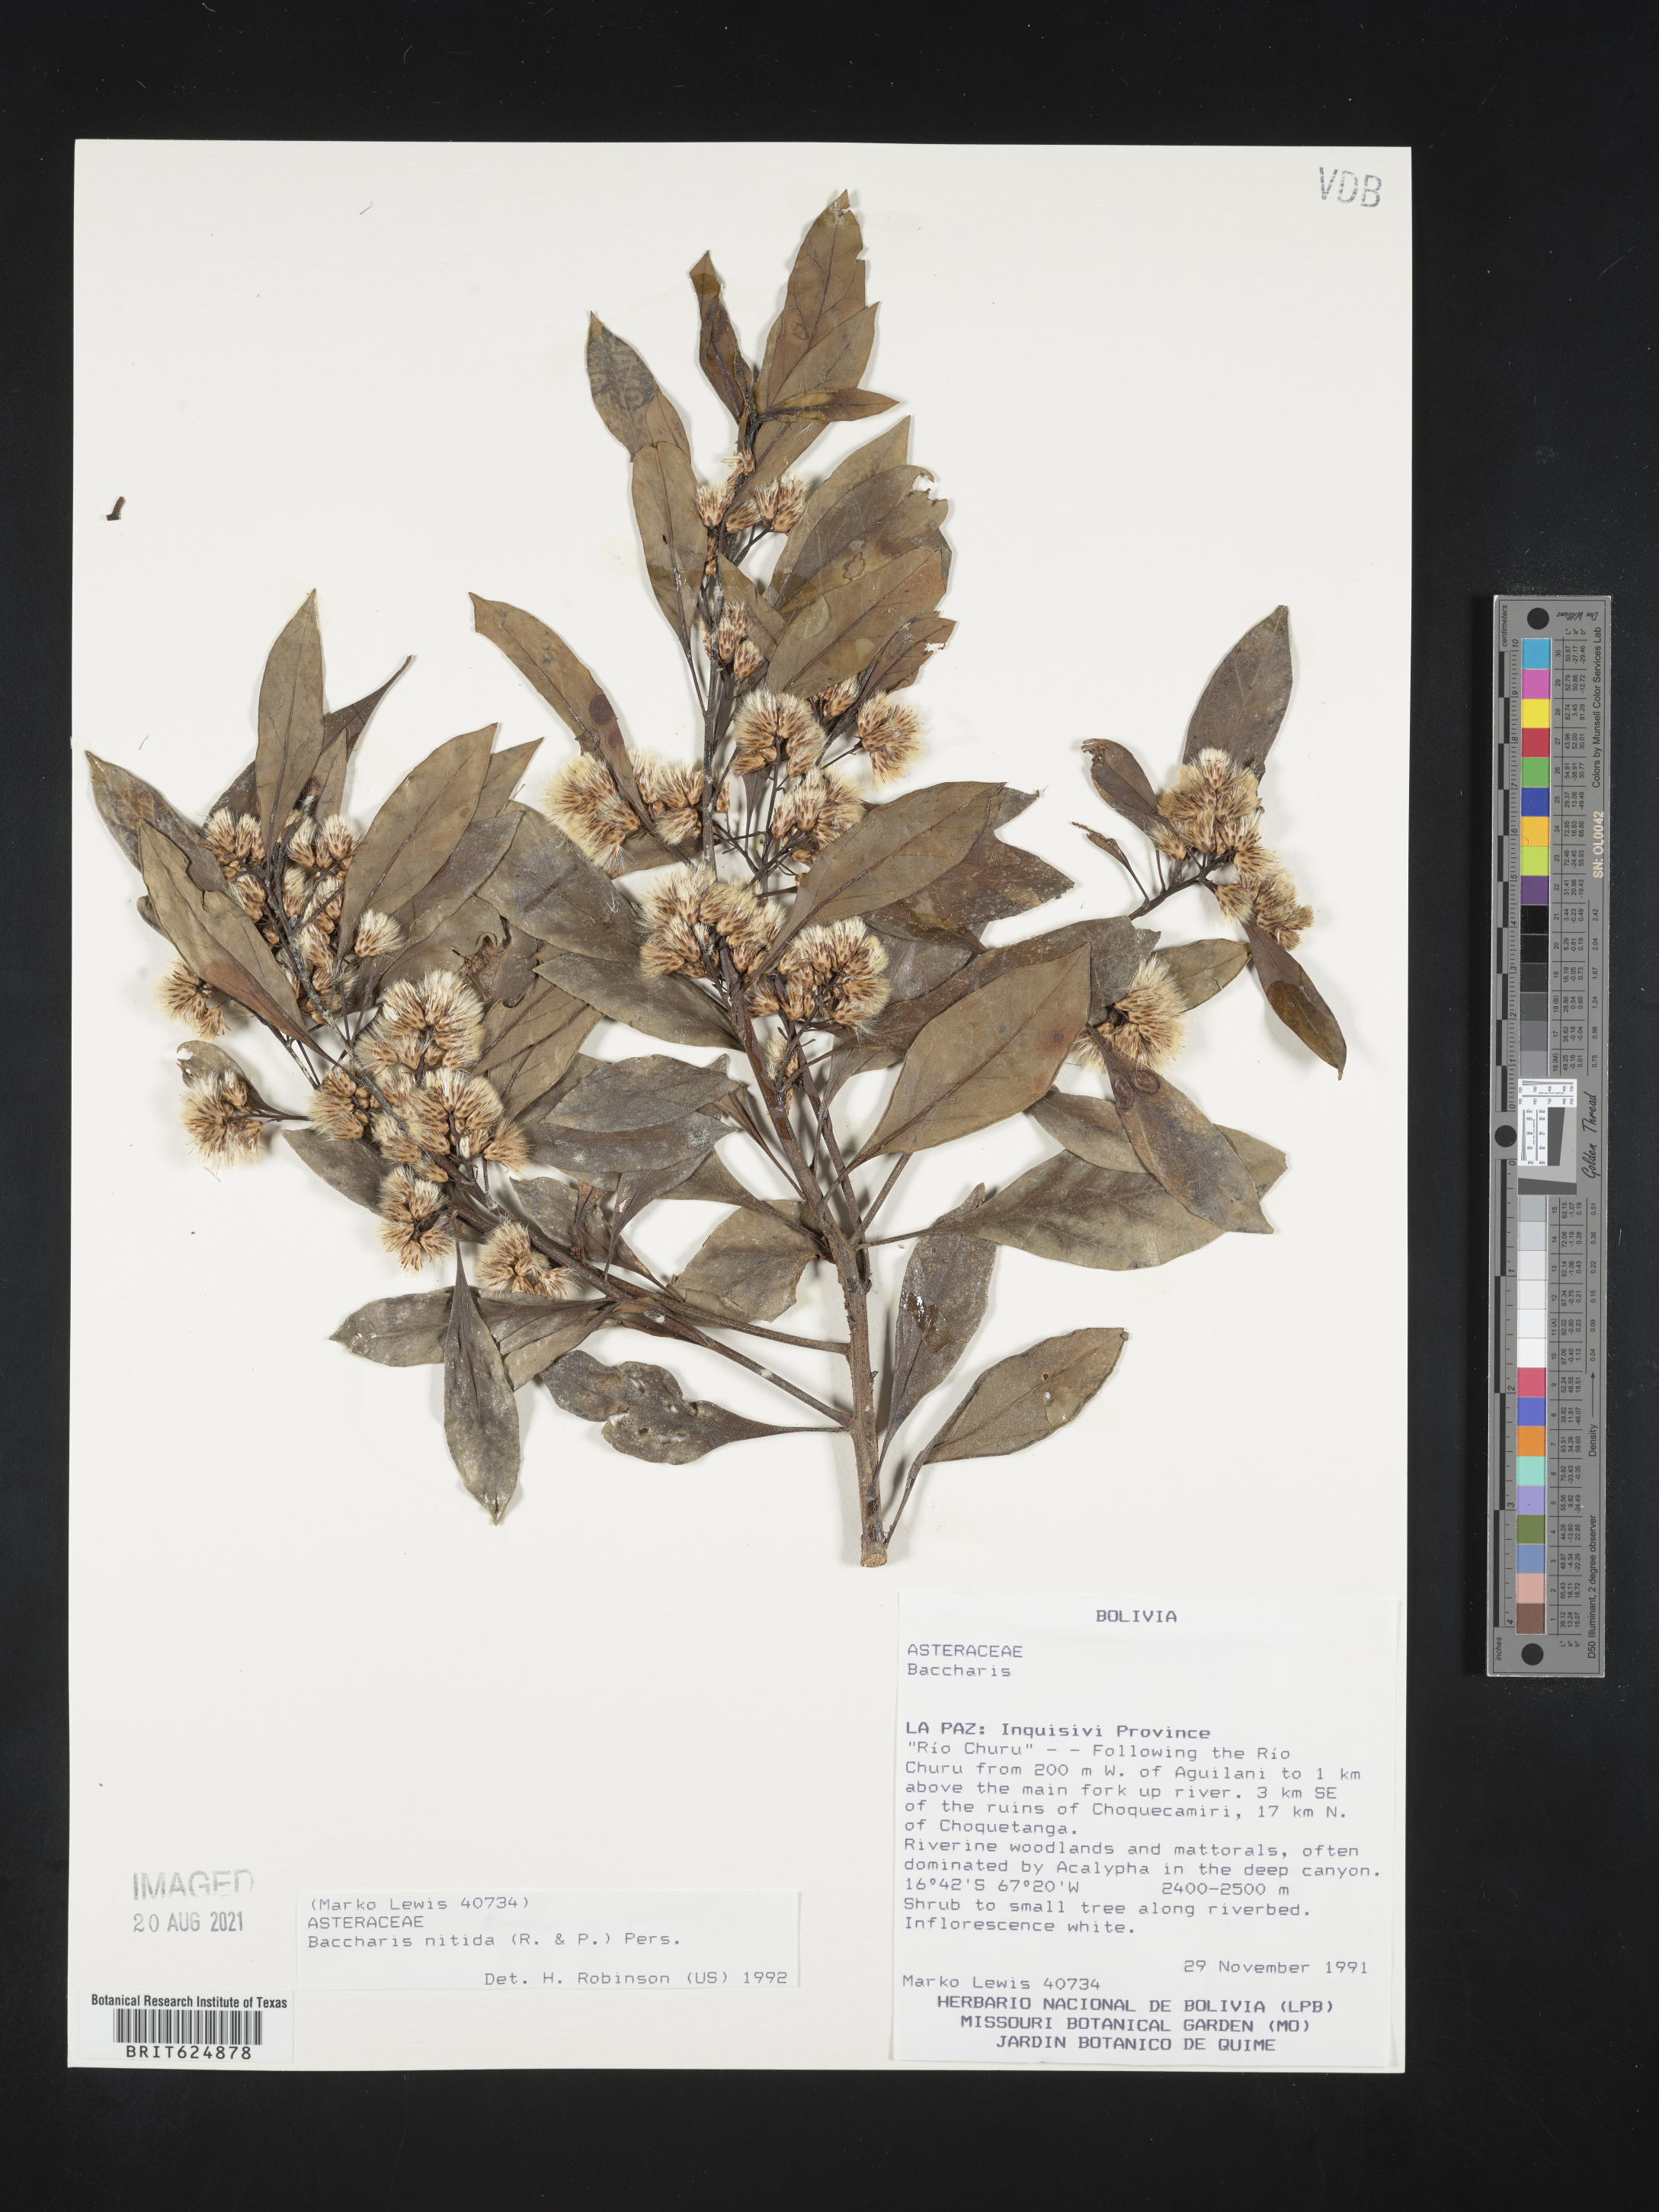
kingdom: Plantae
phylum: Tracheophyta
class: Magnoliopsida
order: Asterales
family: Asteraceae
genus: Baccharis
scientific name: Baccharis nitida
